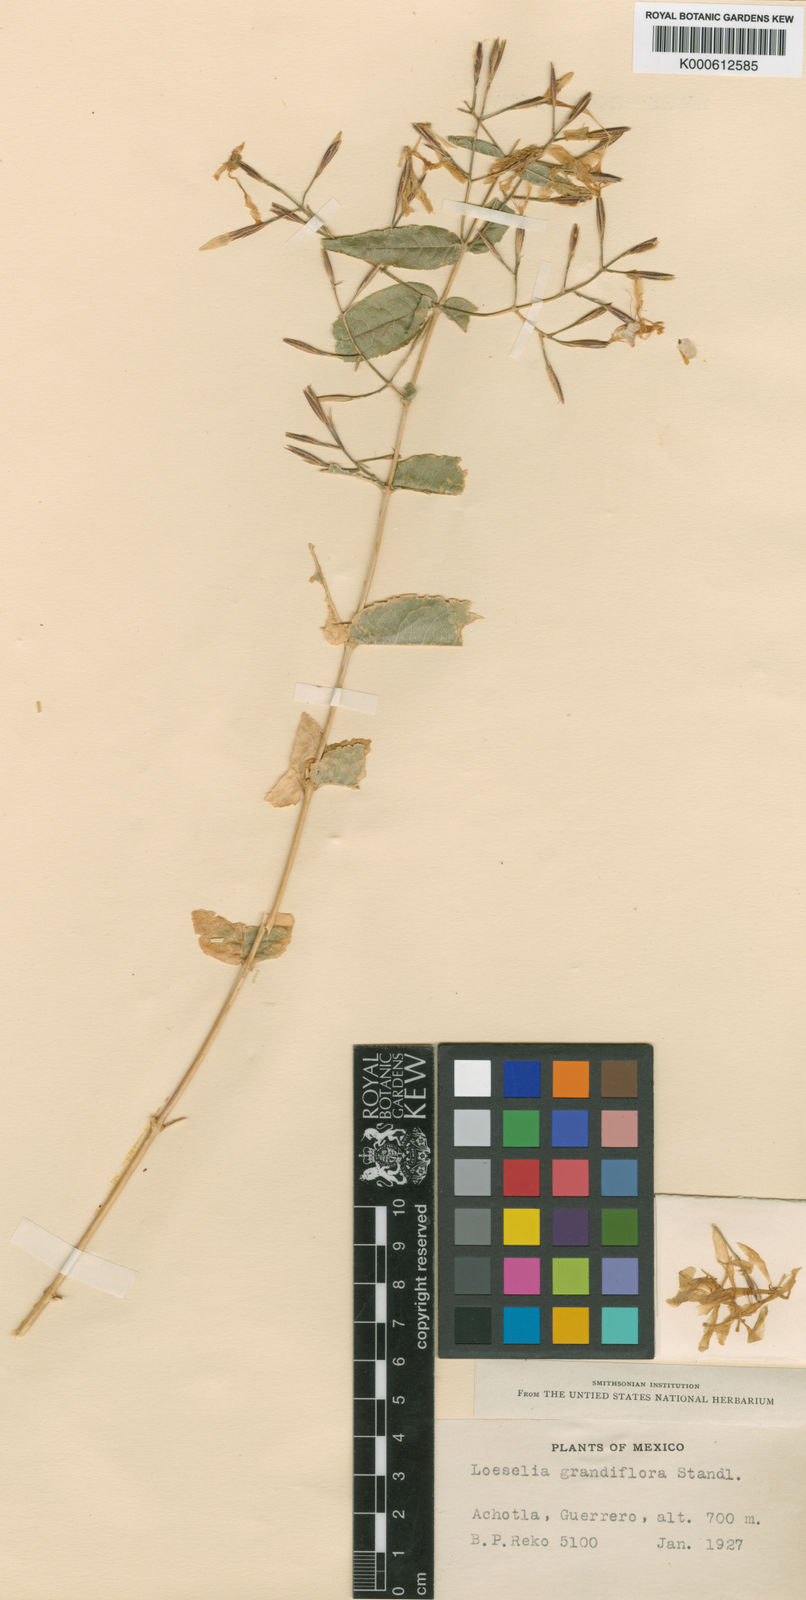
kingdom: Plantae
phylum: Tracheophyta
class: Magnoliopsida
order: Ericales
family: Polemoniaceae
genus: Loeselia
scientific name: Loeselia grandiflora
